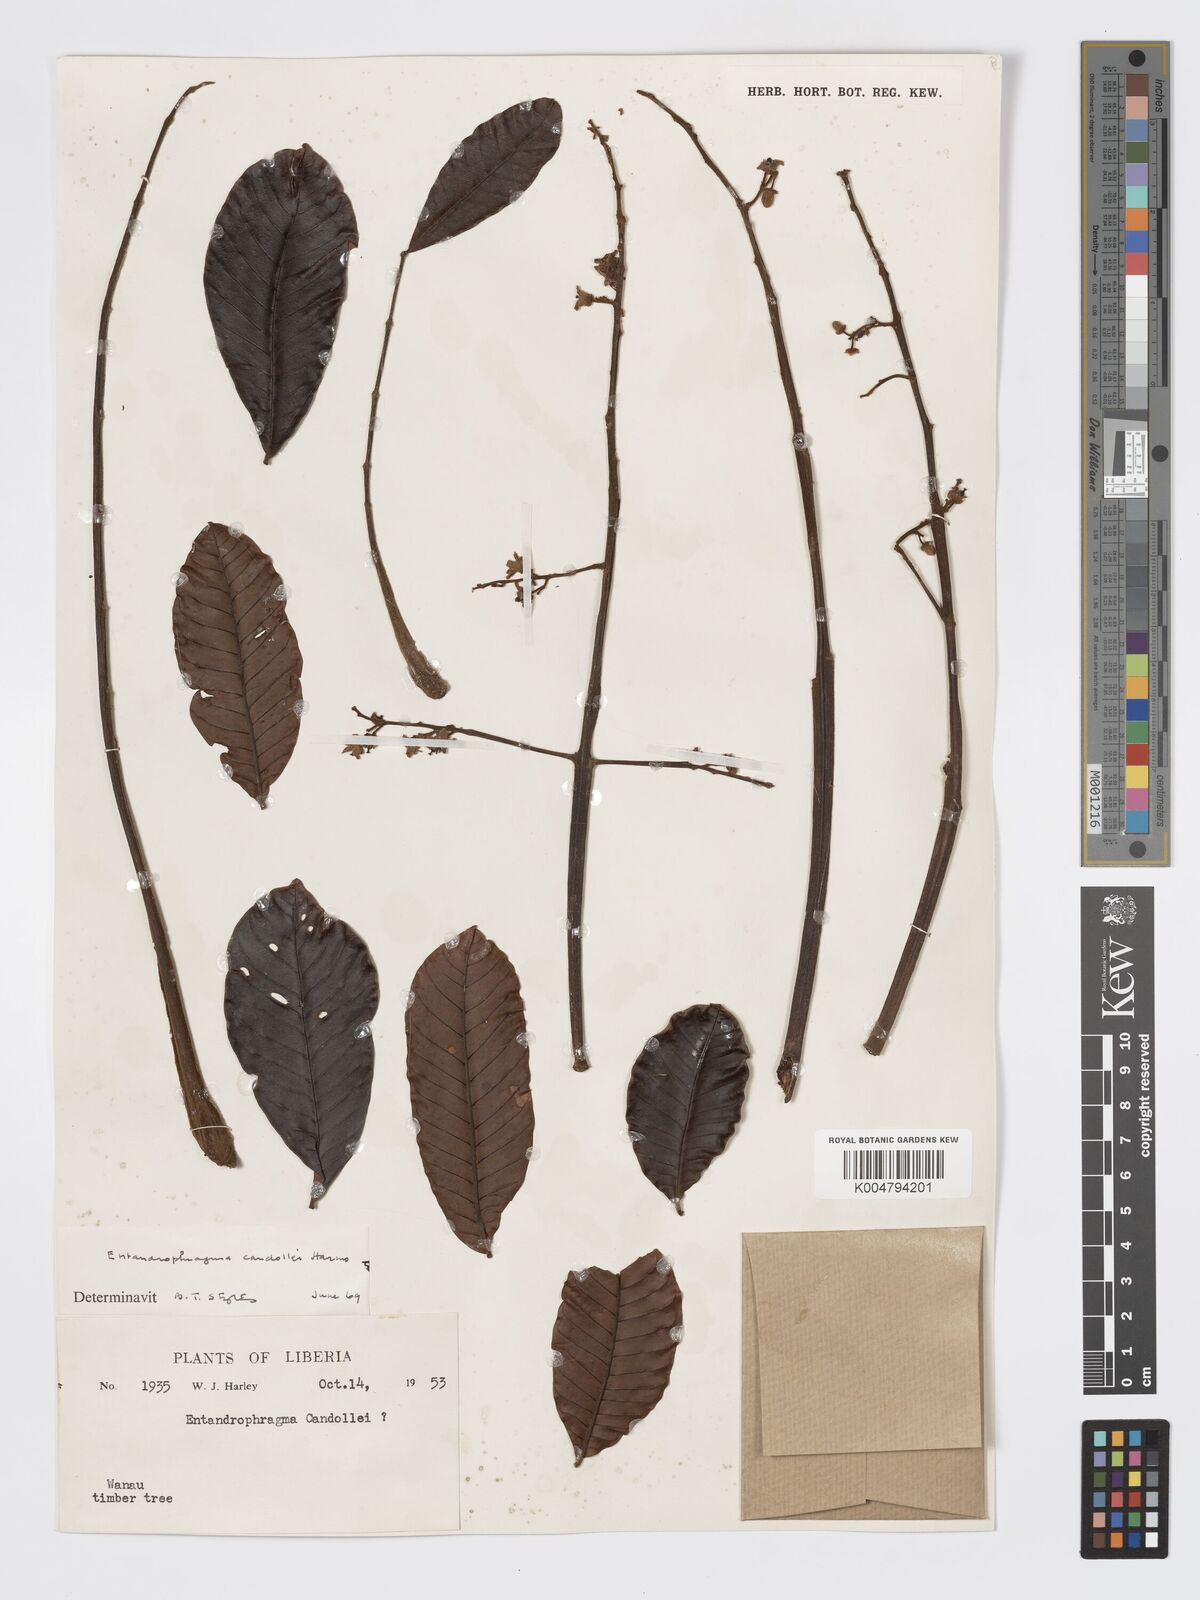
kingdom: Plantae
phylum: Tracheophyta
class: Magnoliopsida
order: Sapindales
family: Meliaceae
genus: Entandrophragma
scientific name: Entandrophragma candollei
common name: Cedar kokoti
